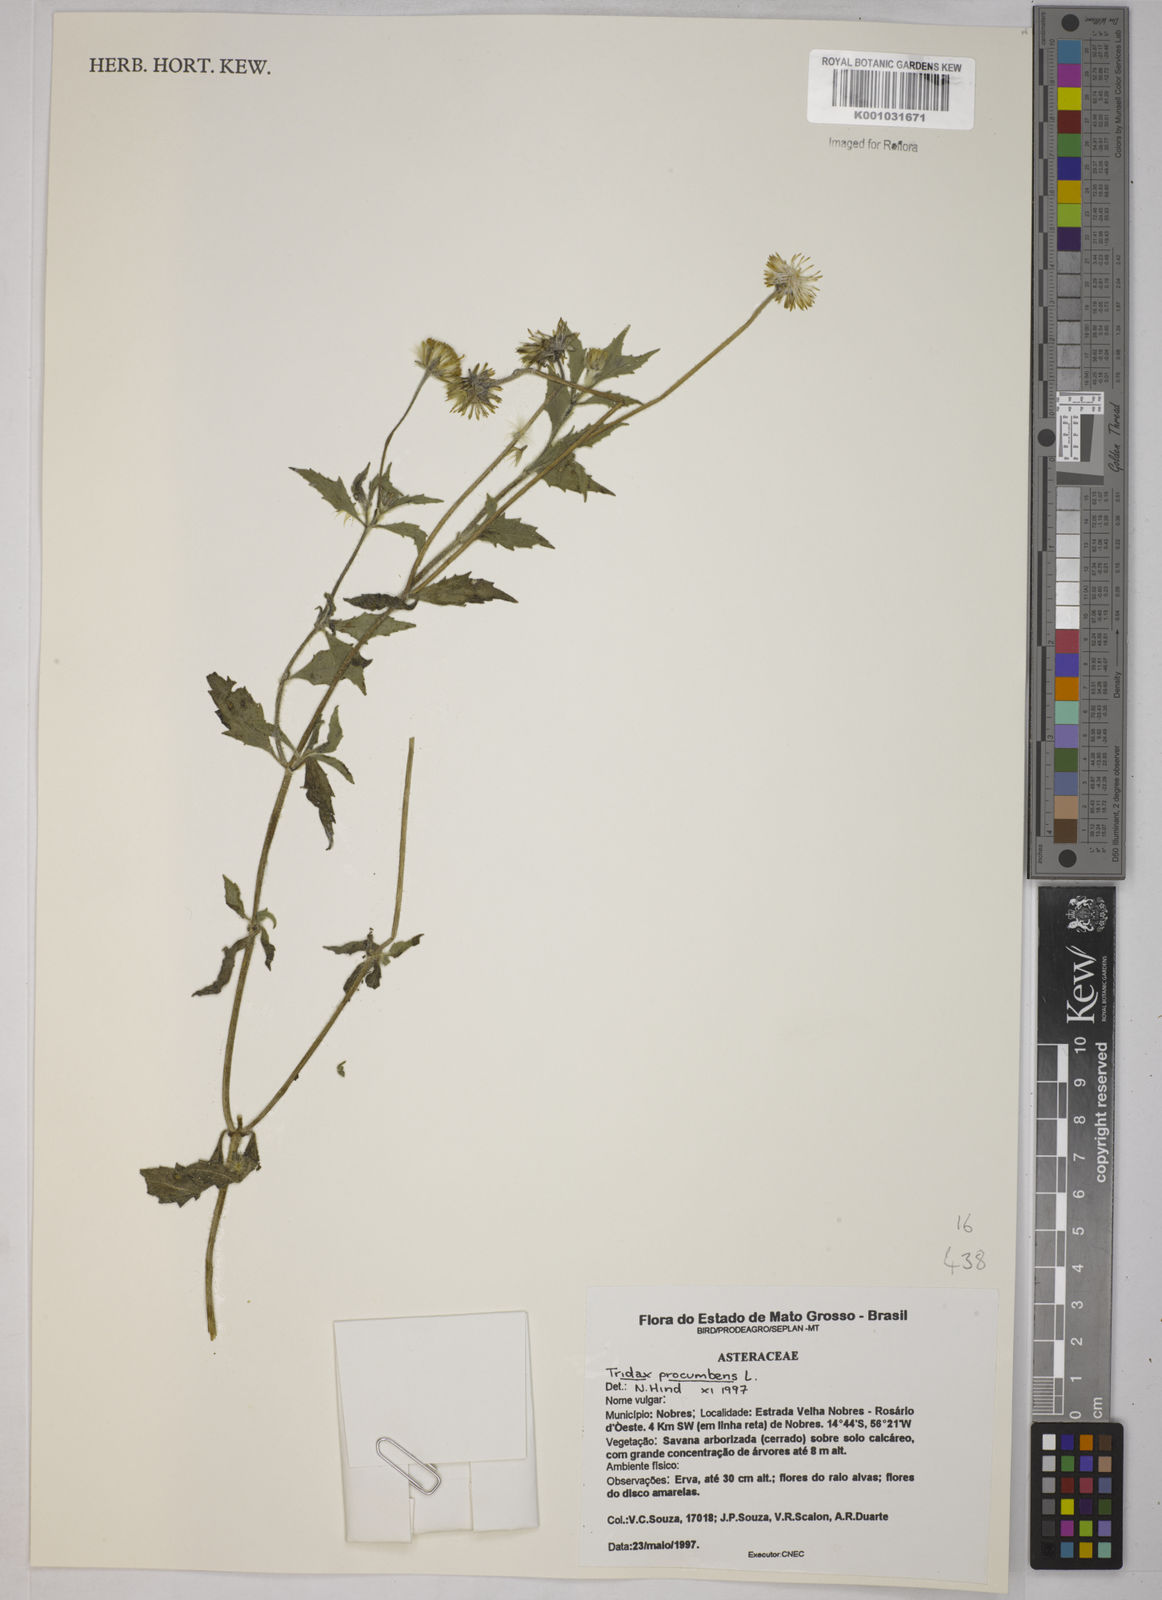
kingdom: Plantae
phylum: Tracheophyta
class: Magnoliopsida
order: Asterales
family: Asteraceae
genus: Tridax
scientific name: Tridax procumbens
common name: Coatbuttons
